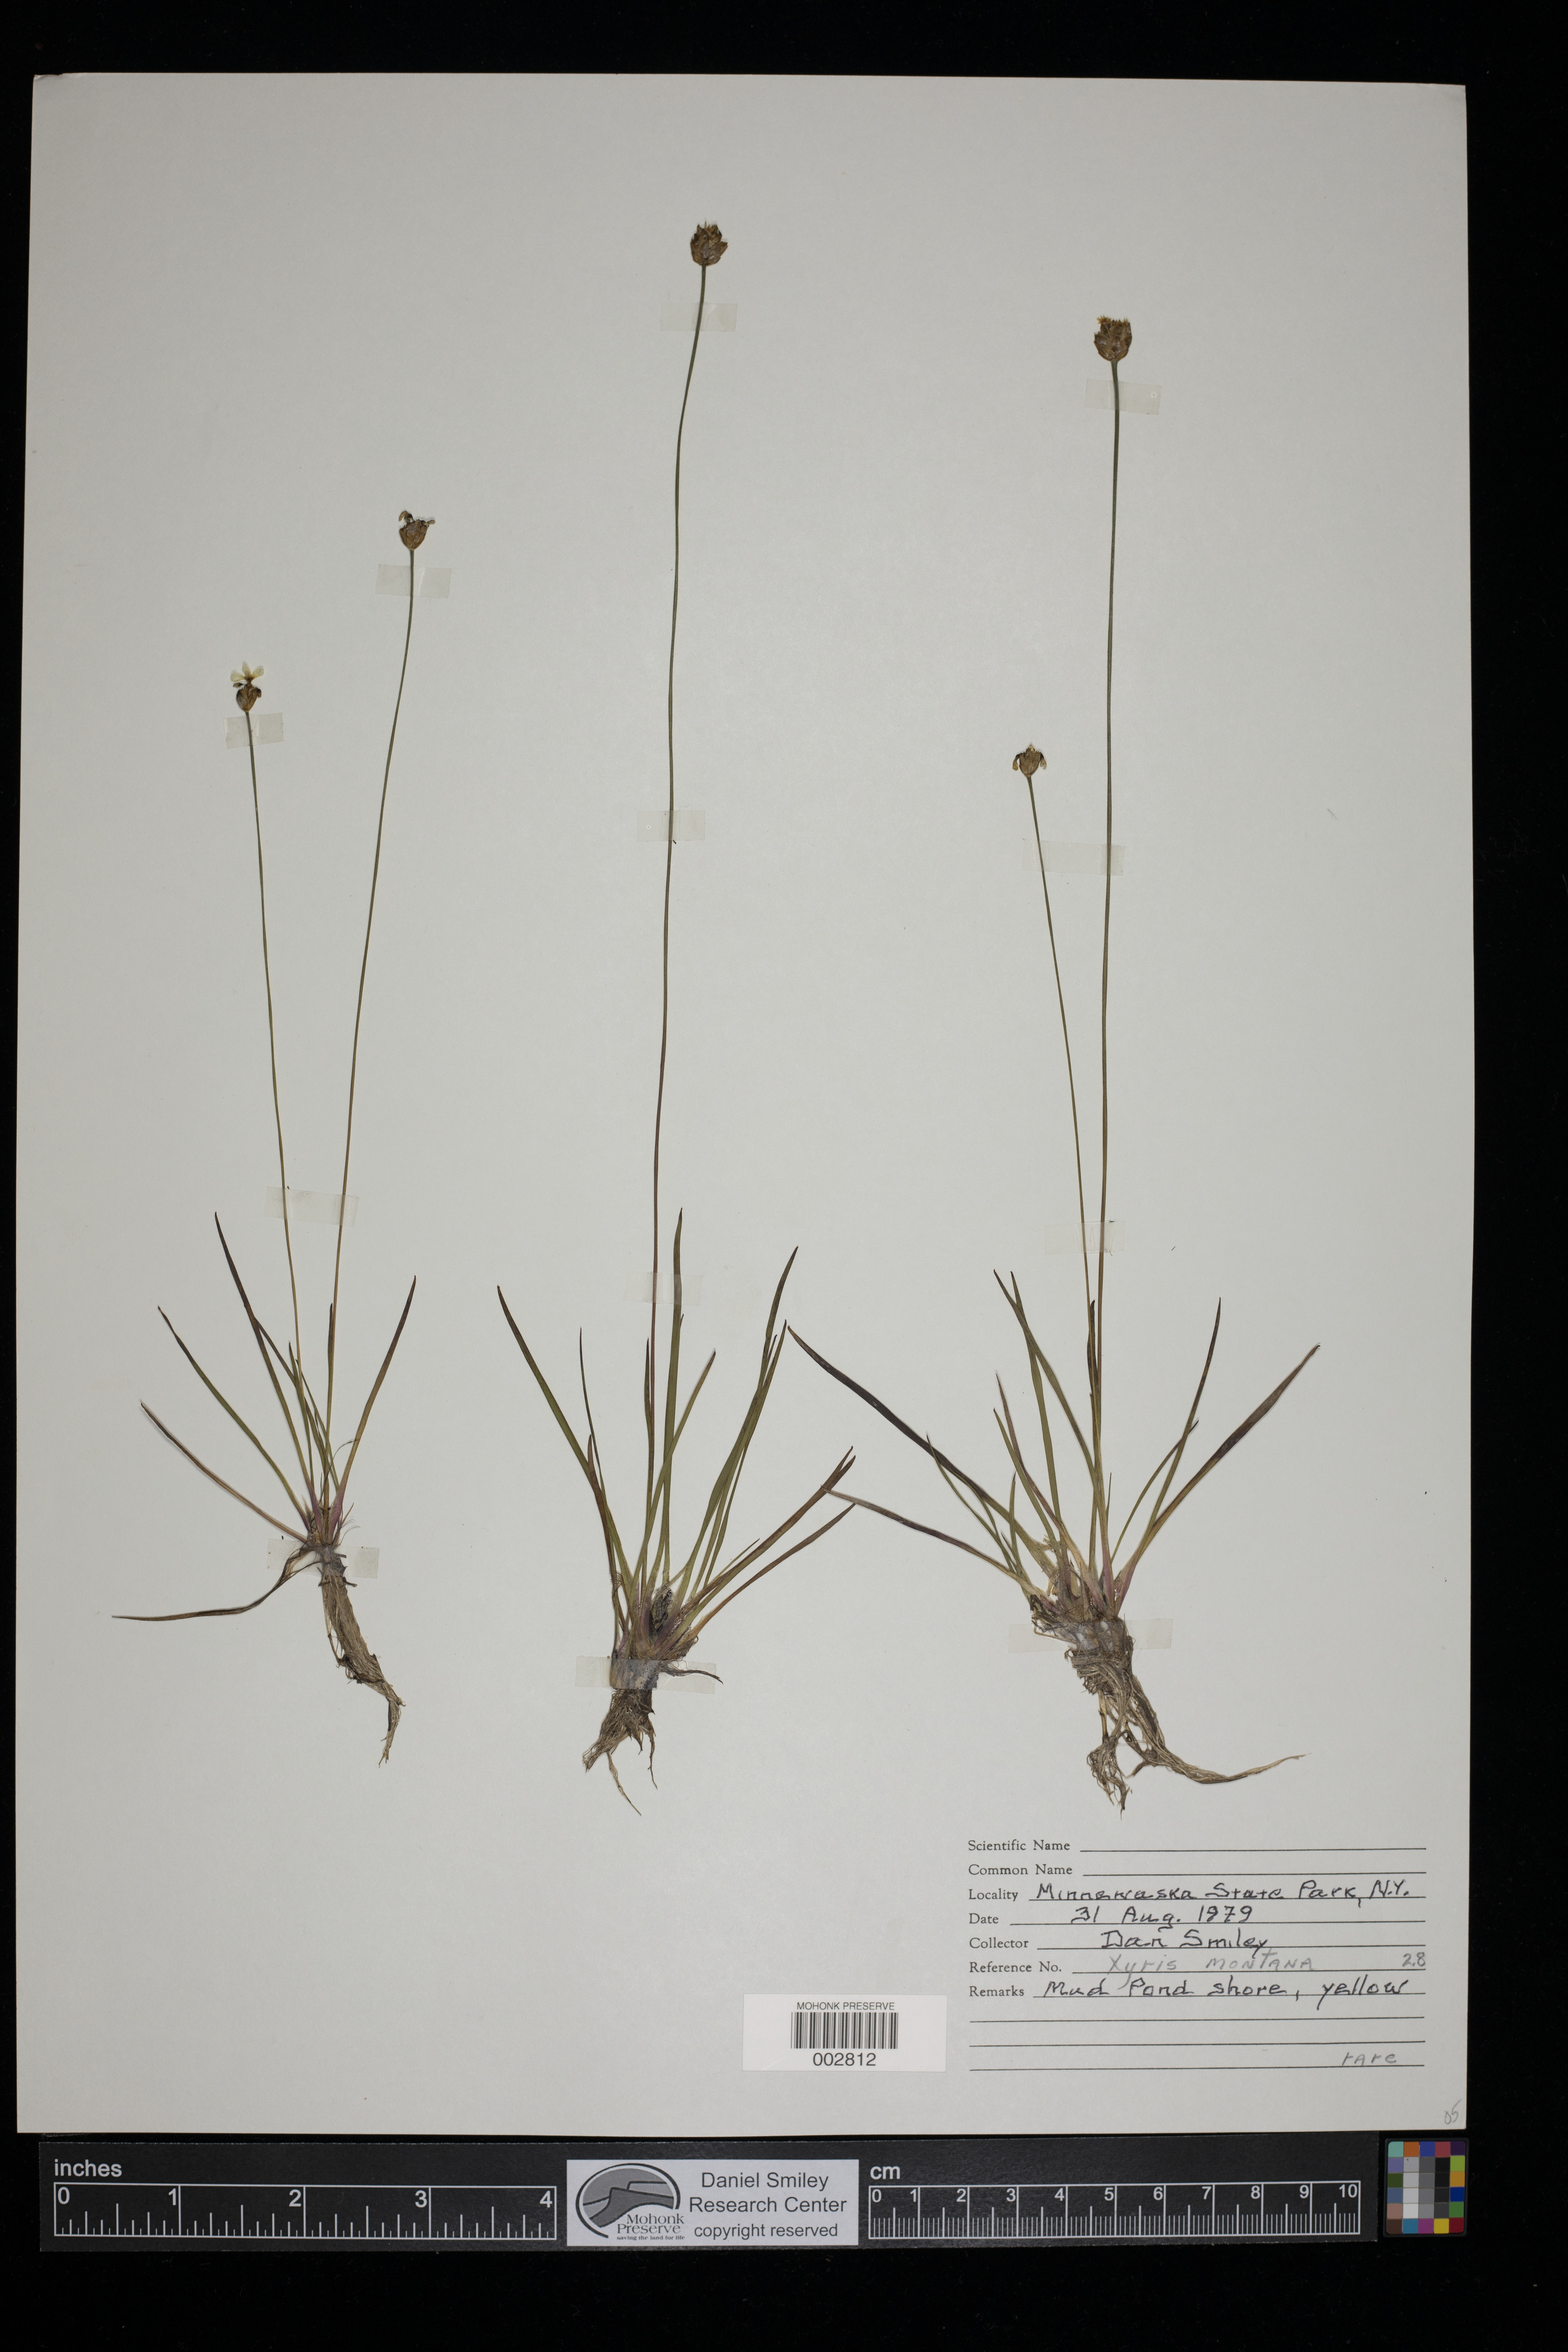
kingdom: Plantae
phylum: Tracheophyta
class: Liliopsida
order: Poales
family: Xyridaceae
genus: Xyris
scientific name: Xyris montana
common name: Northern yellow-eyed-grass
